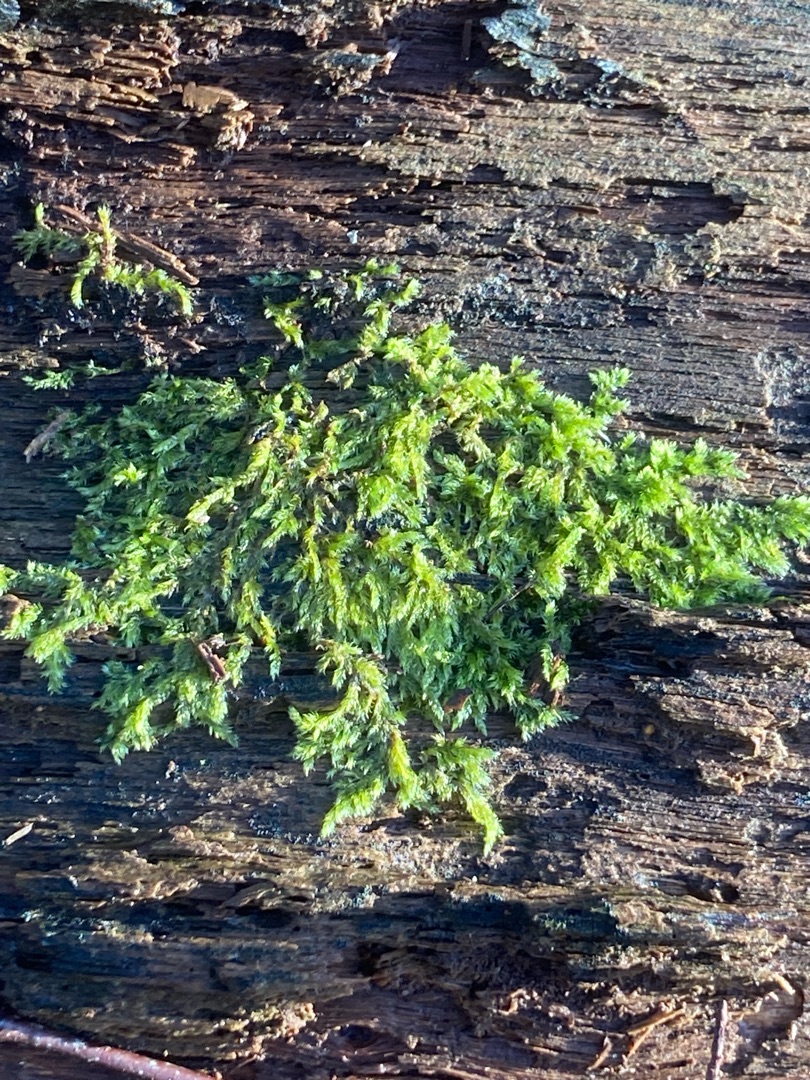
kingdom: Plantae
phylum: Bryophyta
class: Bryopsida
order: Hypnales
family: Hypnaceae
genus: Hypnum
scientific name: Hypnum cupressiforme
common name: Almindelig cypresmos
